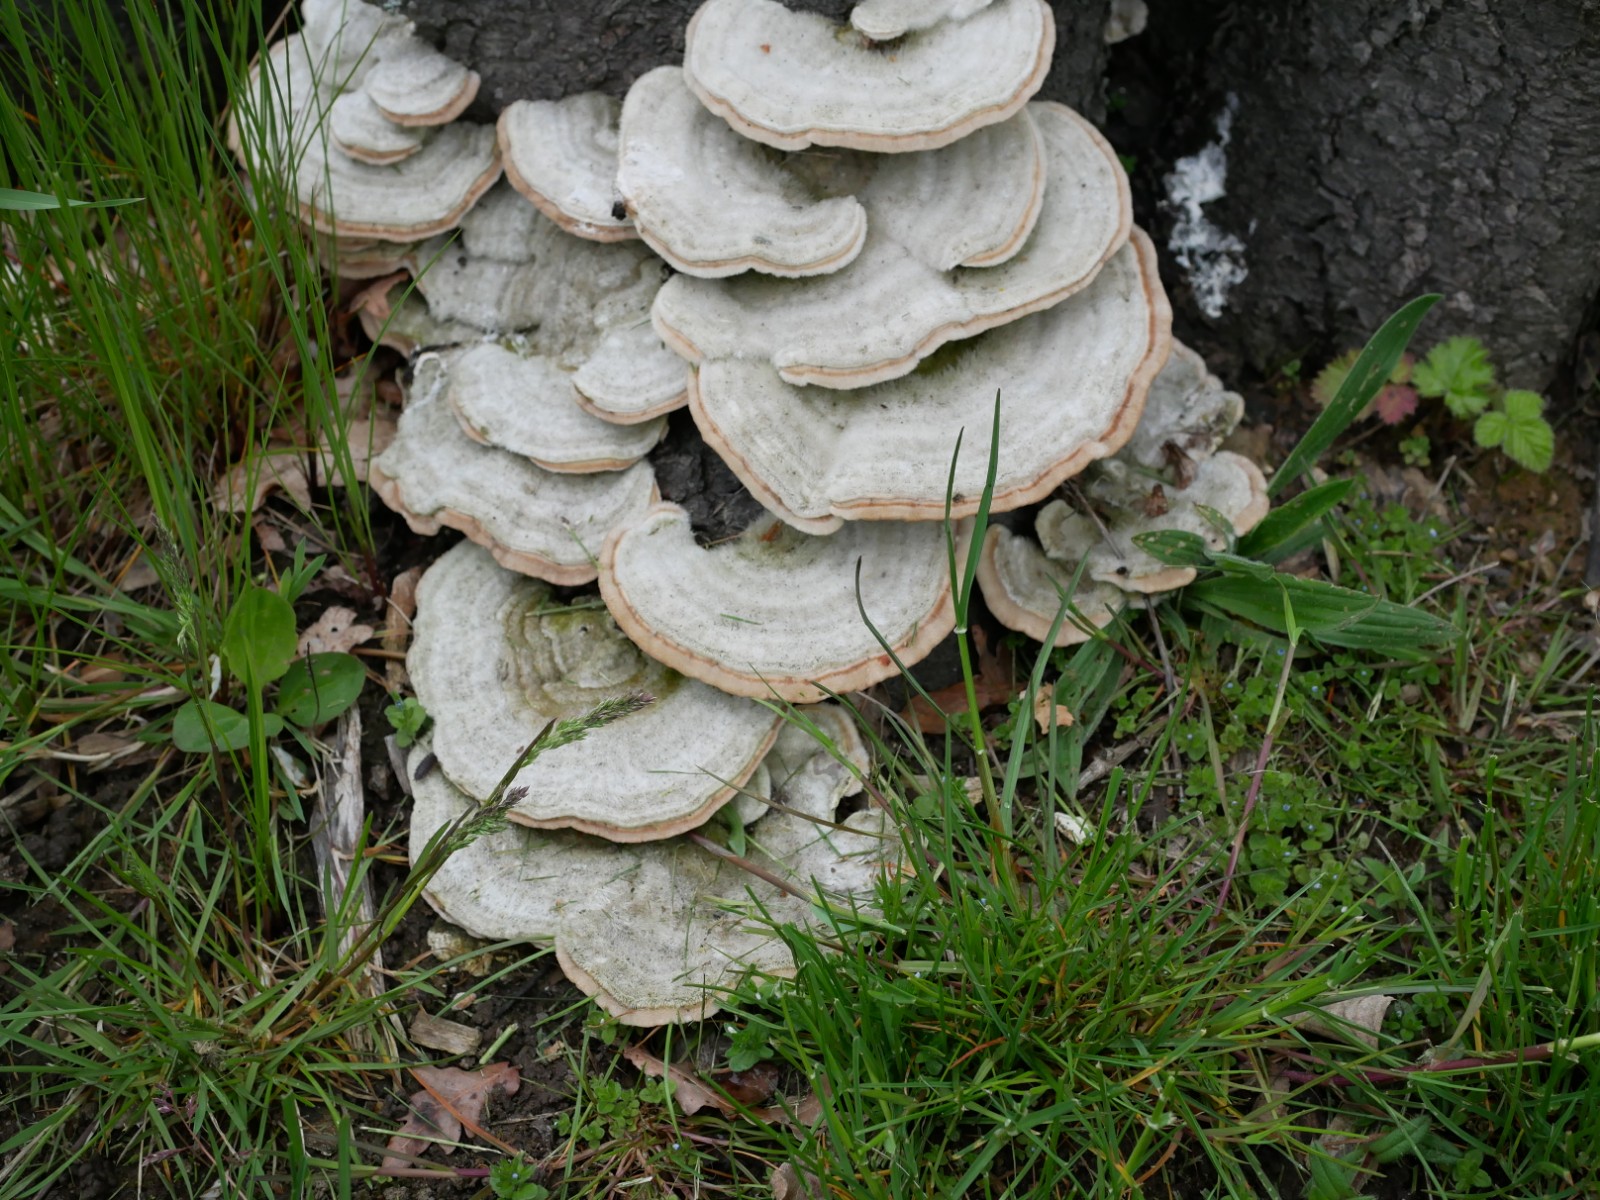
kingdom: Fungi
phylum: Basidiomycota
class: Agaricomycetes
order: Polyporales
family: Polyporaceae
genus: Trametes
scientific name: Trametes hirsuta
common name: håret læderporesvamp
